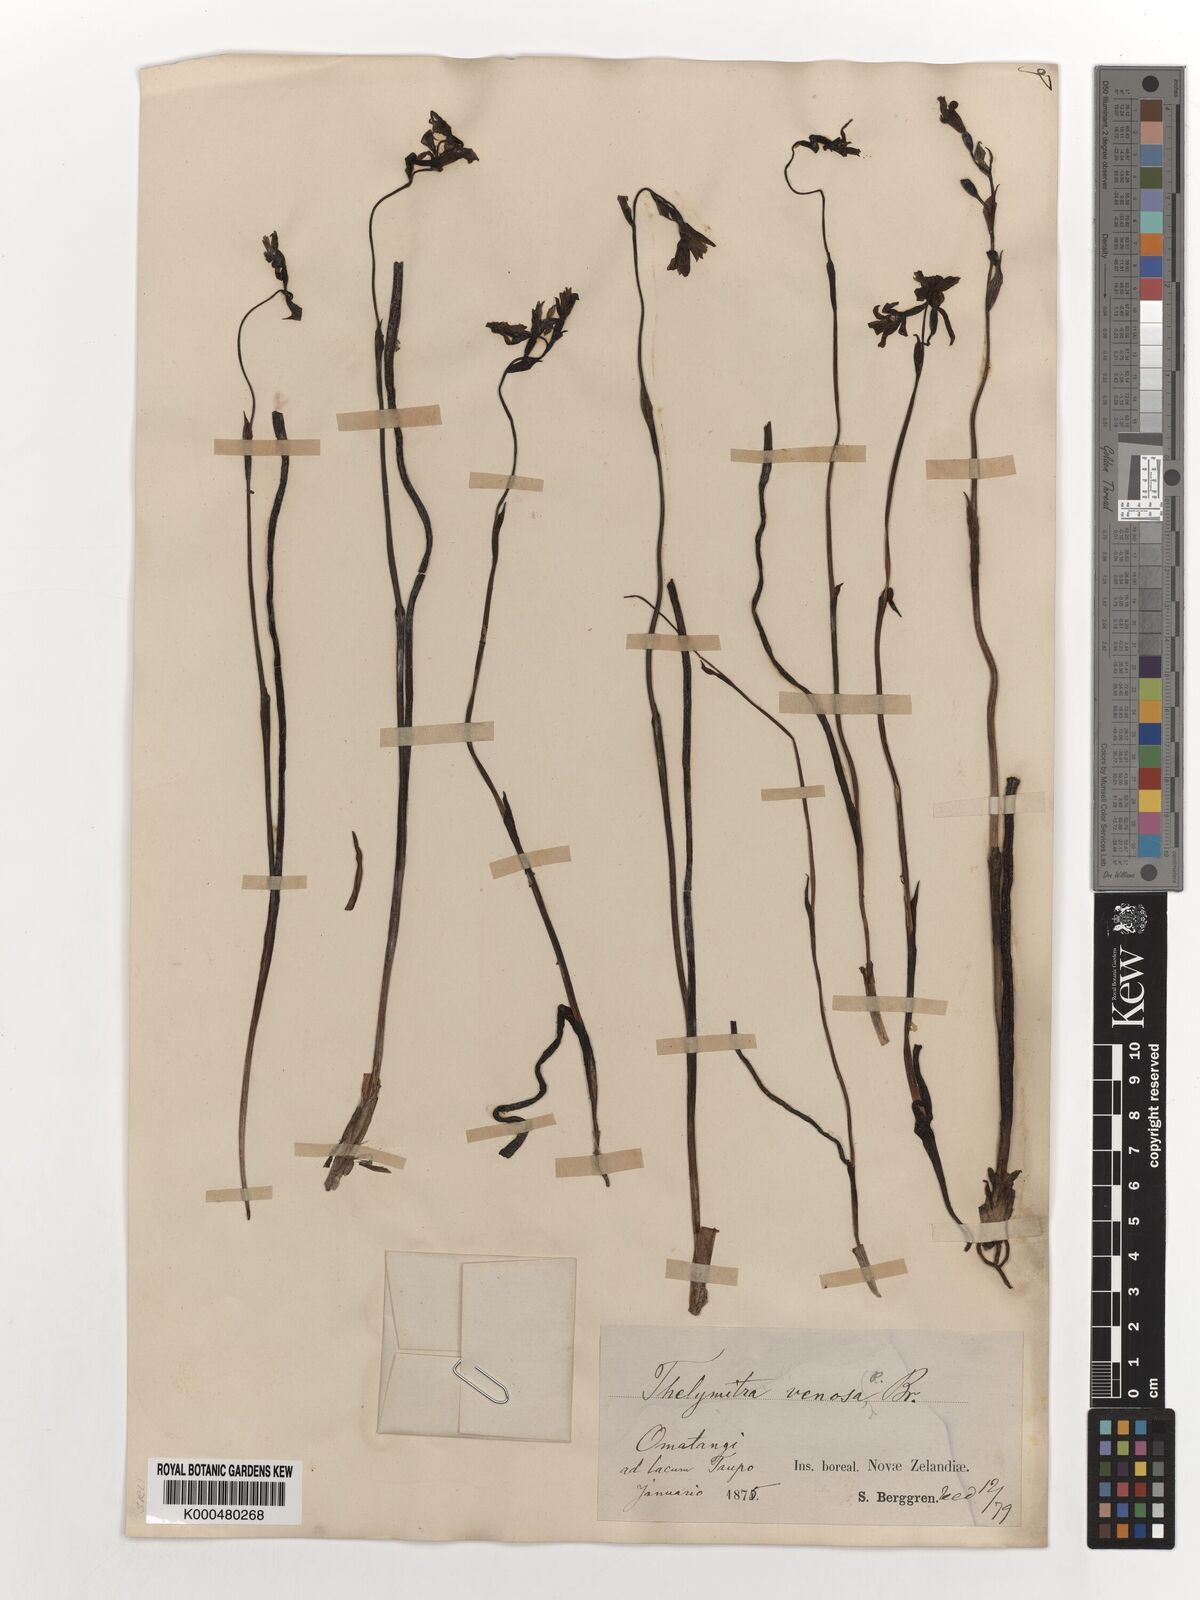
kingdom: Plantae
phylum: Tracheophyta
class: Liliopsida
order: Asparagales
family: Orchidaceae
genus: Thelymitra
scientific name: Thelymitra cyanea
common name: Blue sun-orchid
